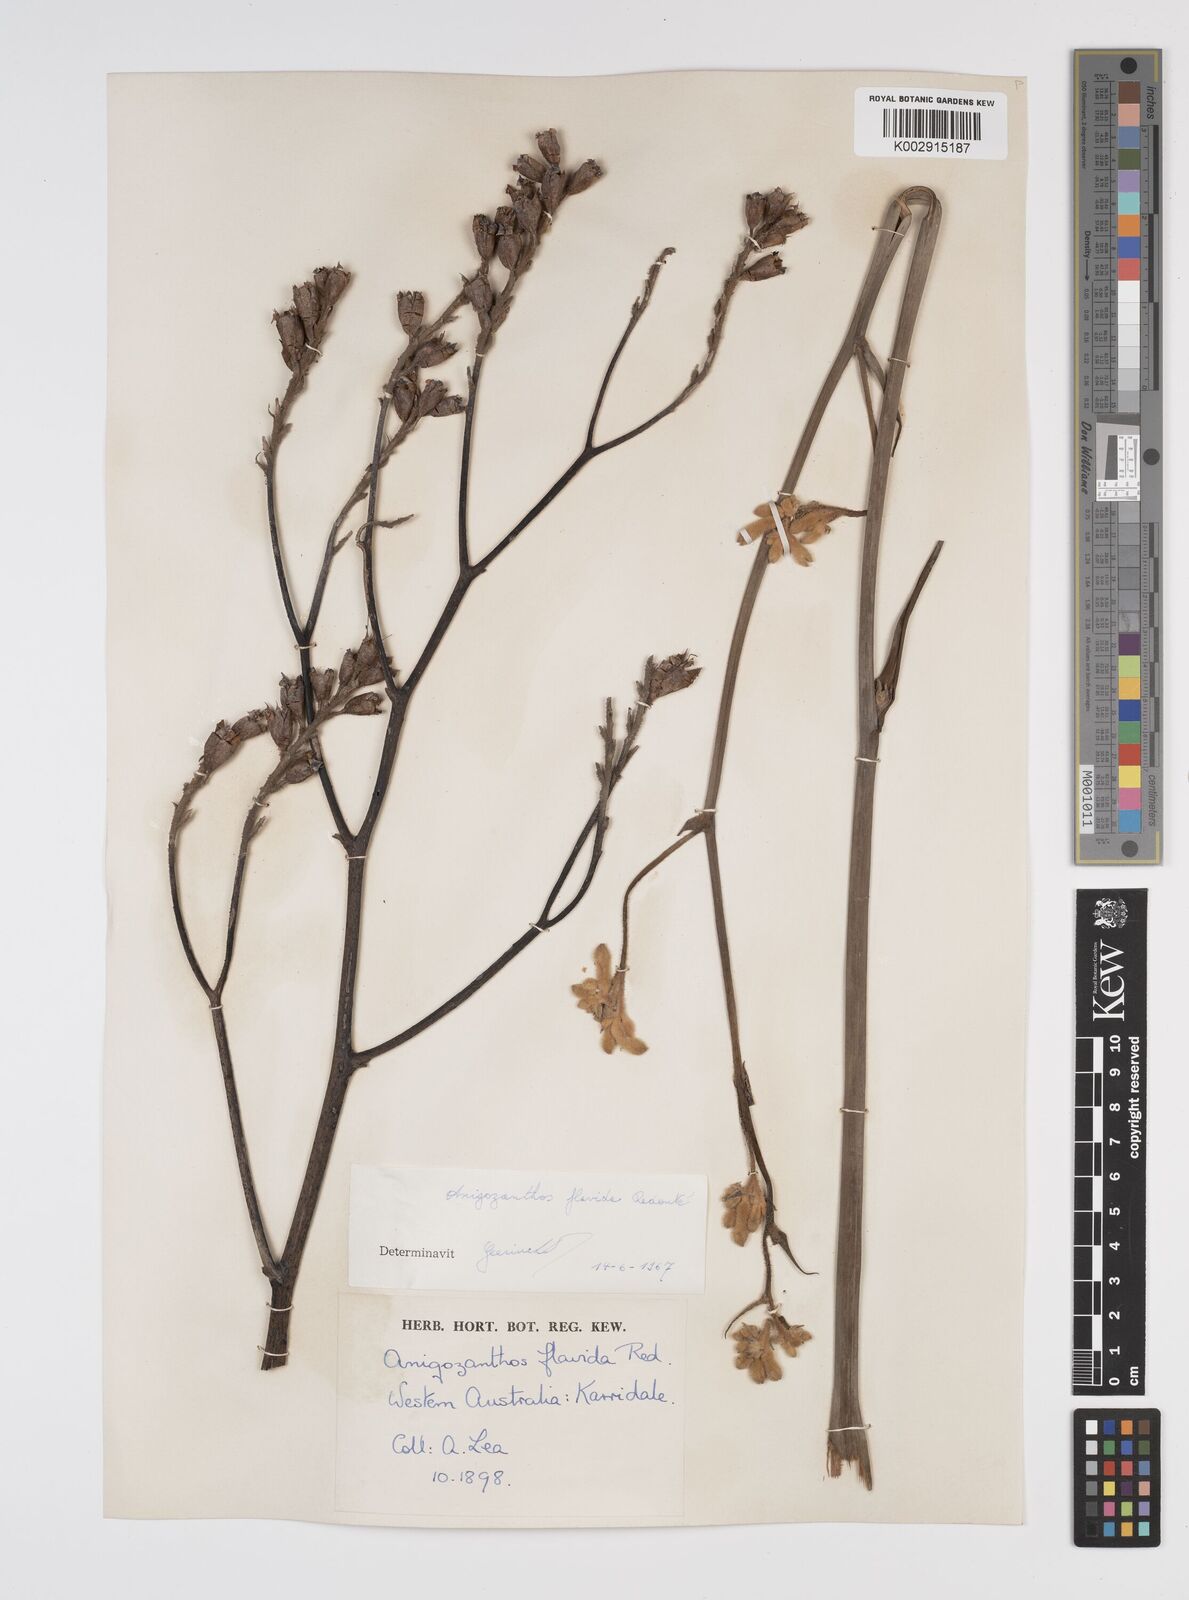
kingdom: Plantae
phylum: Tracheophyta
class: Liliopsida
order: Commelinales
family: Haemodoraceae
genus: Anigozanthos
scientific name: Anigozanthos flavidus
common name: Evergreen kangaroo-paw
